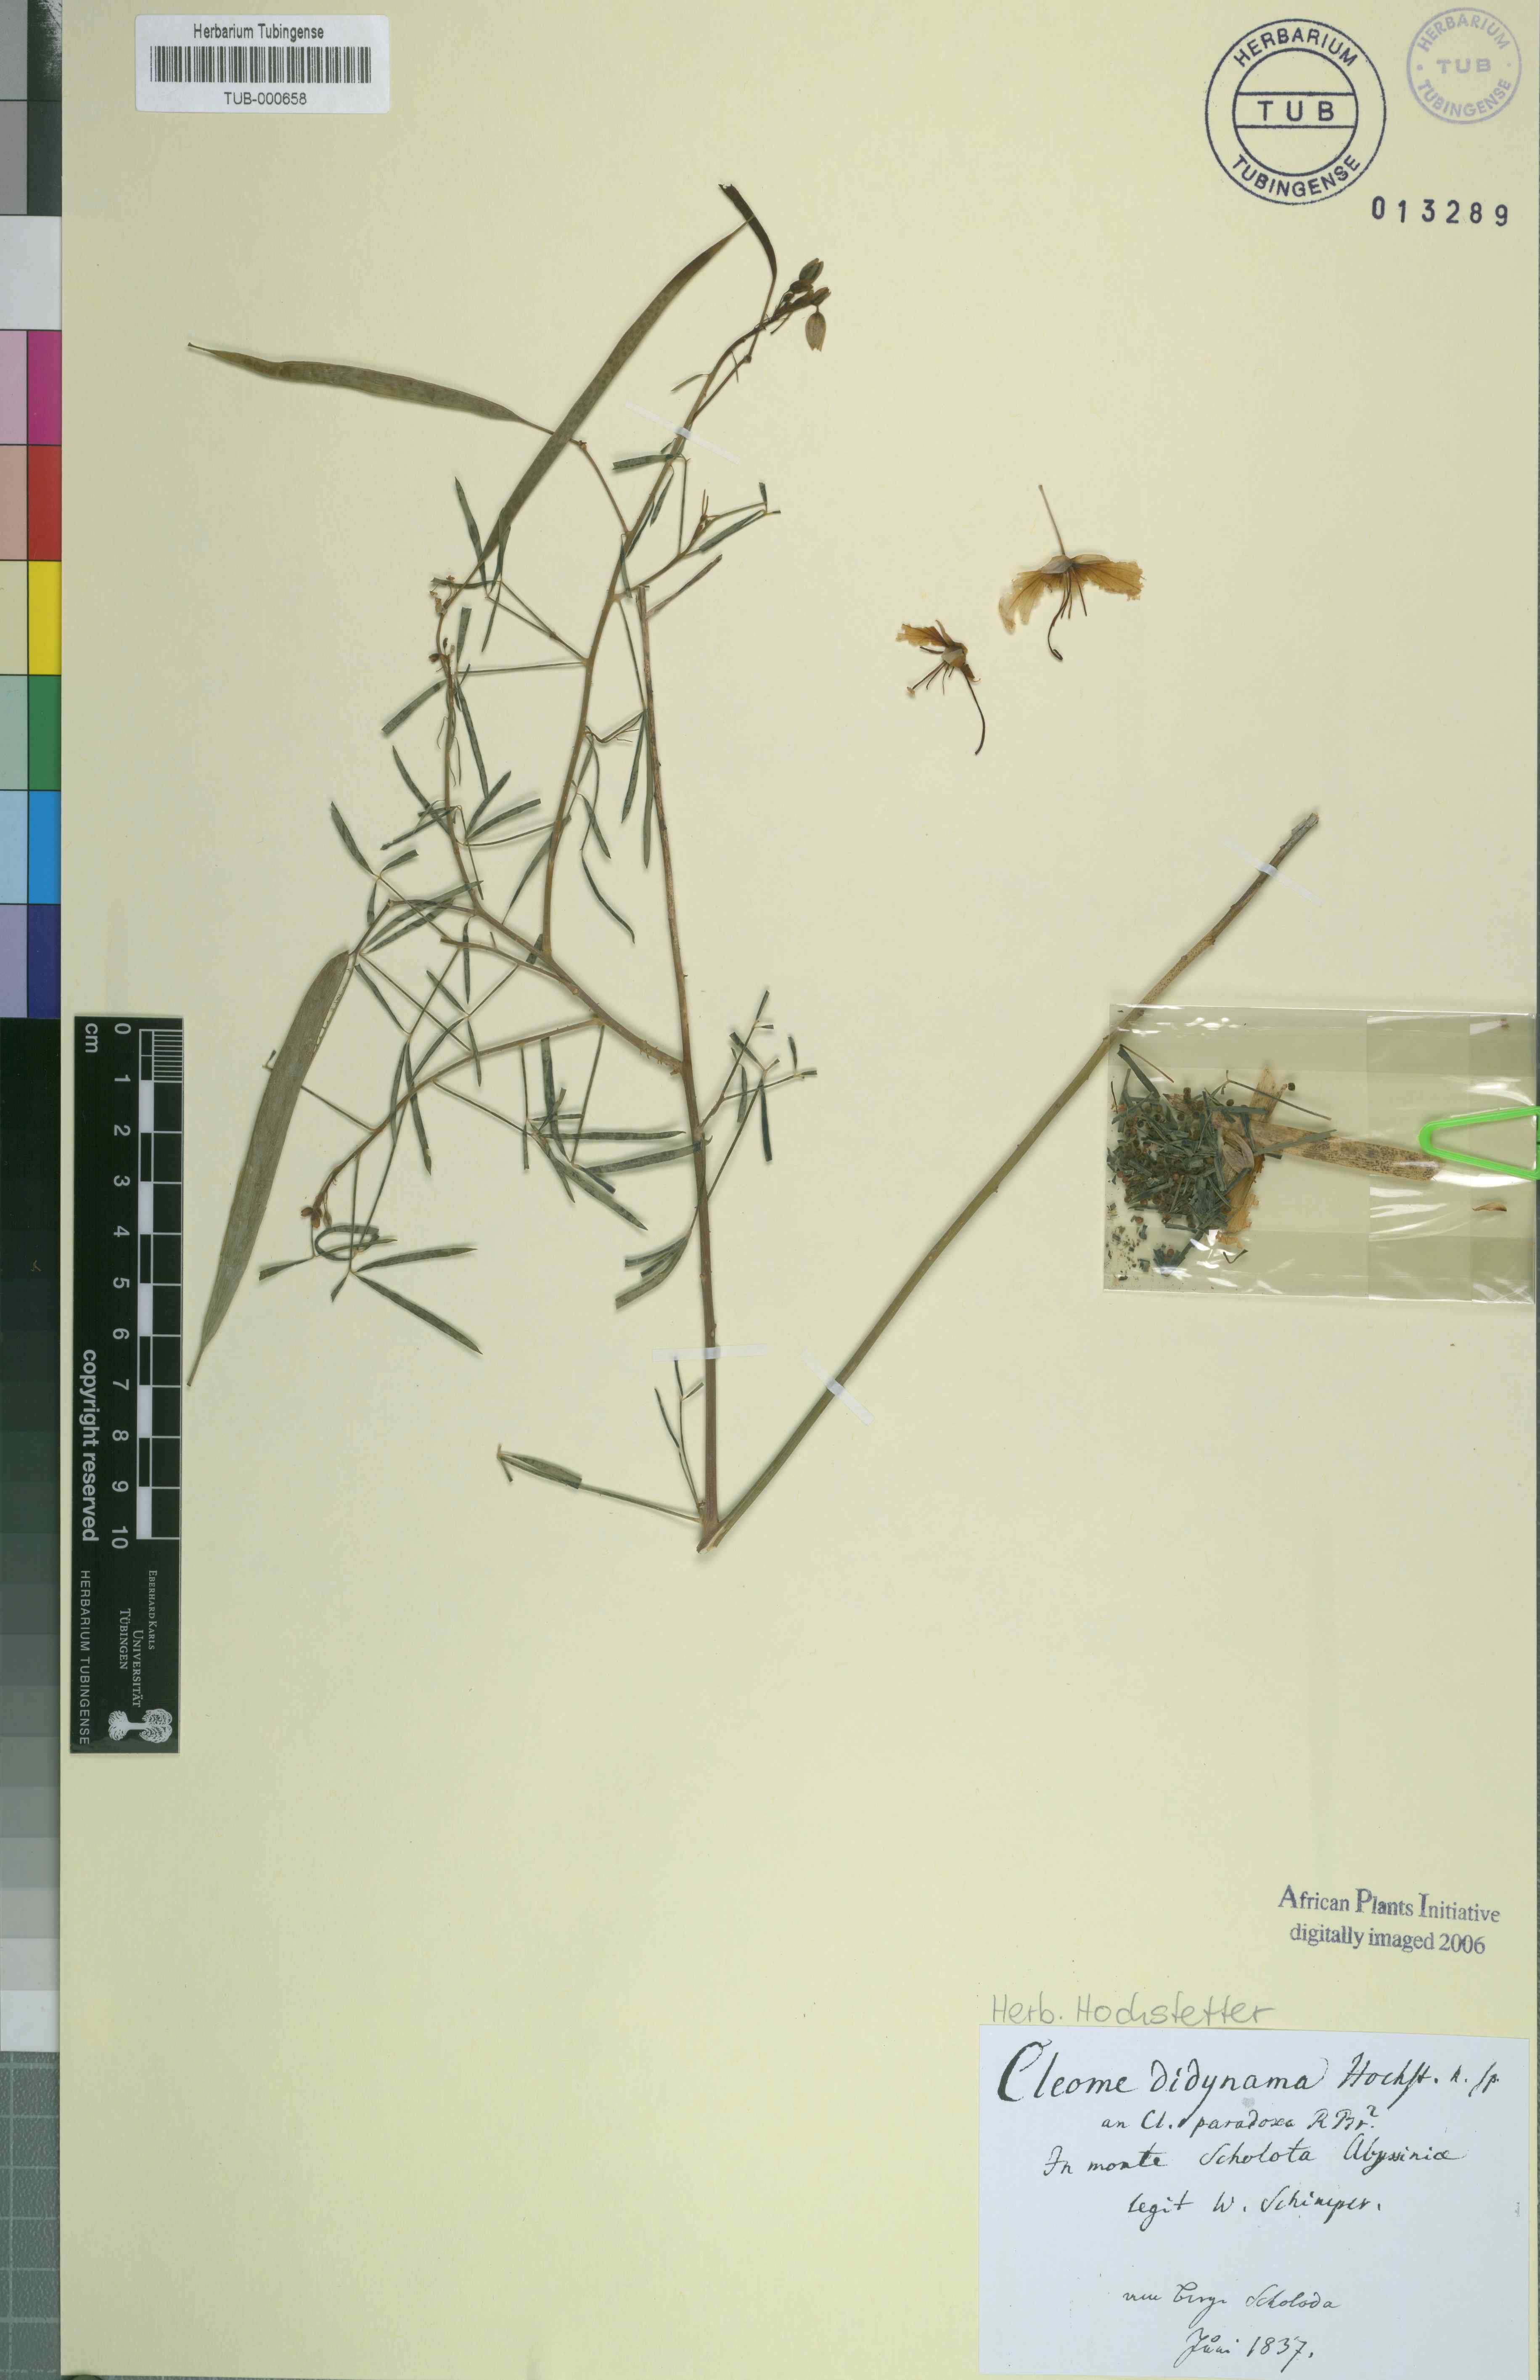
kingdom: Plantae
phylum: Tracheophyta
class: Magnoliopsida
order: Brassicales
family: Cleomaceae
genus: Coalisina
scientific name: Coalisina angustifolia
